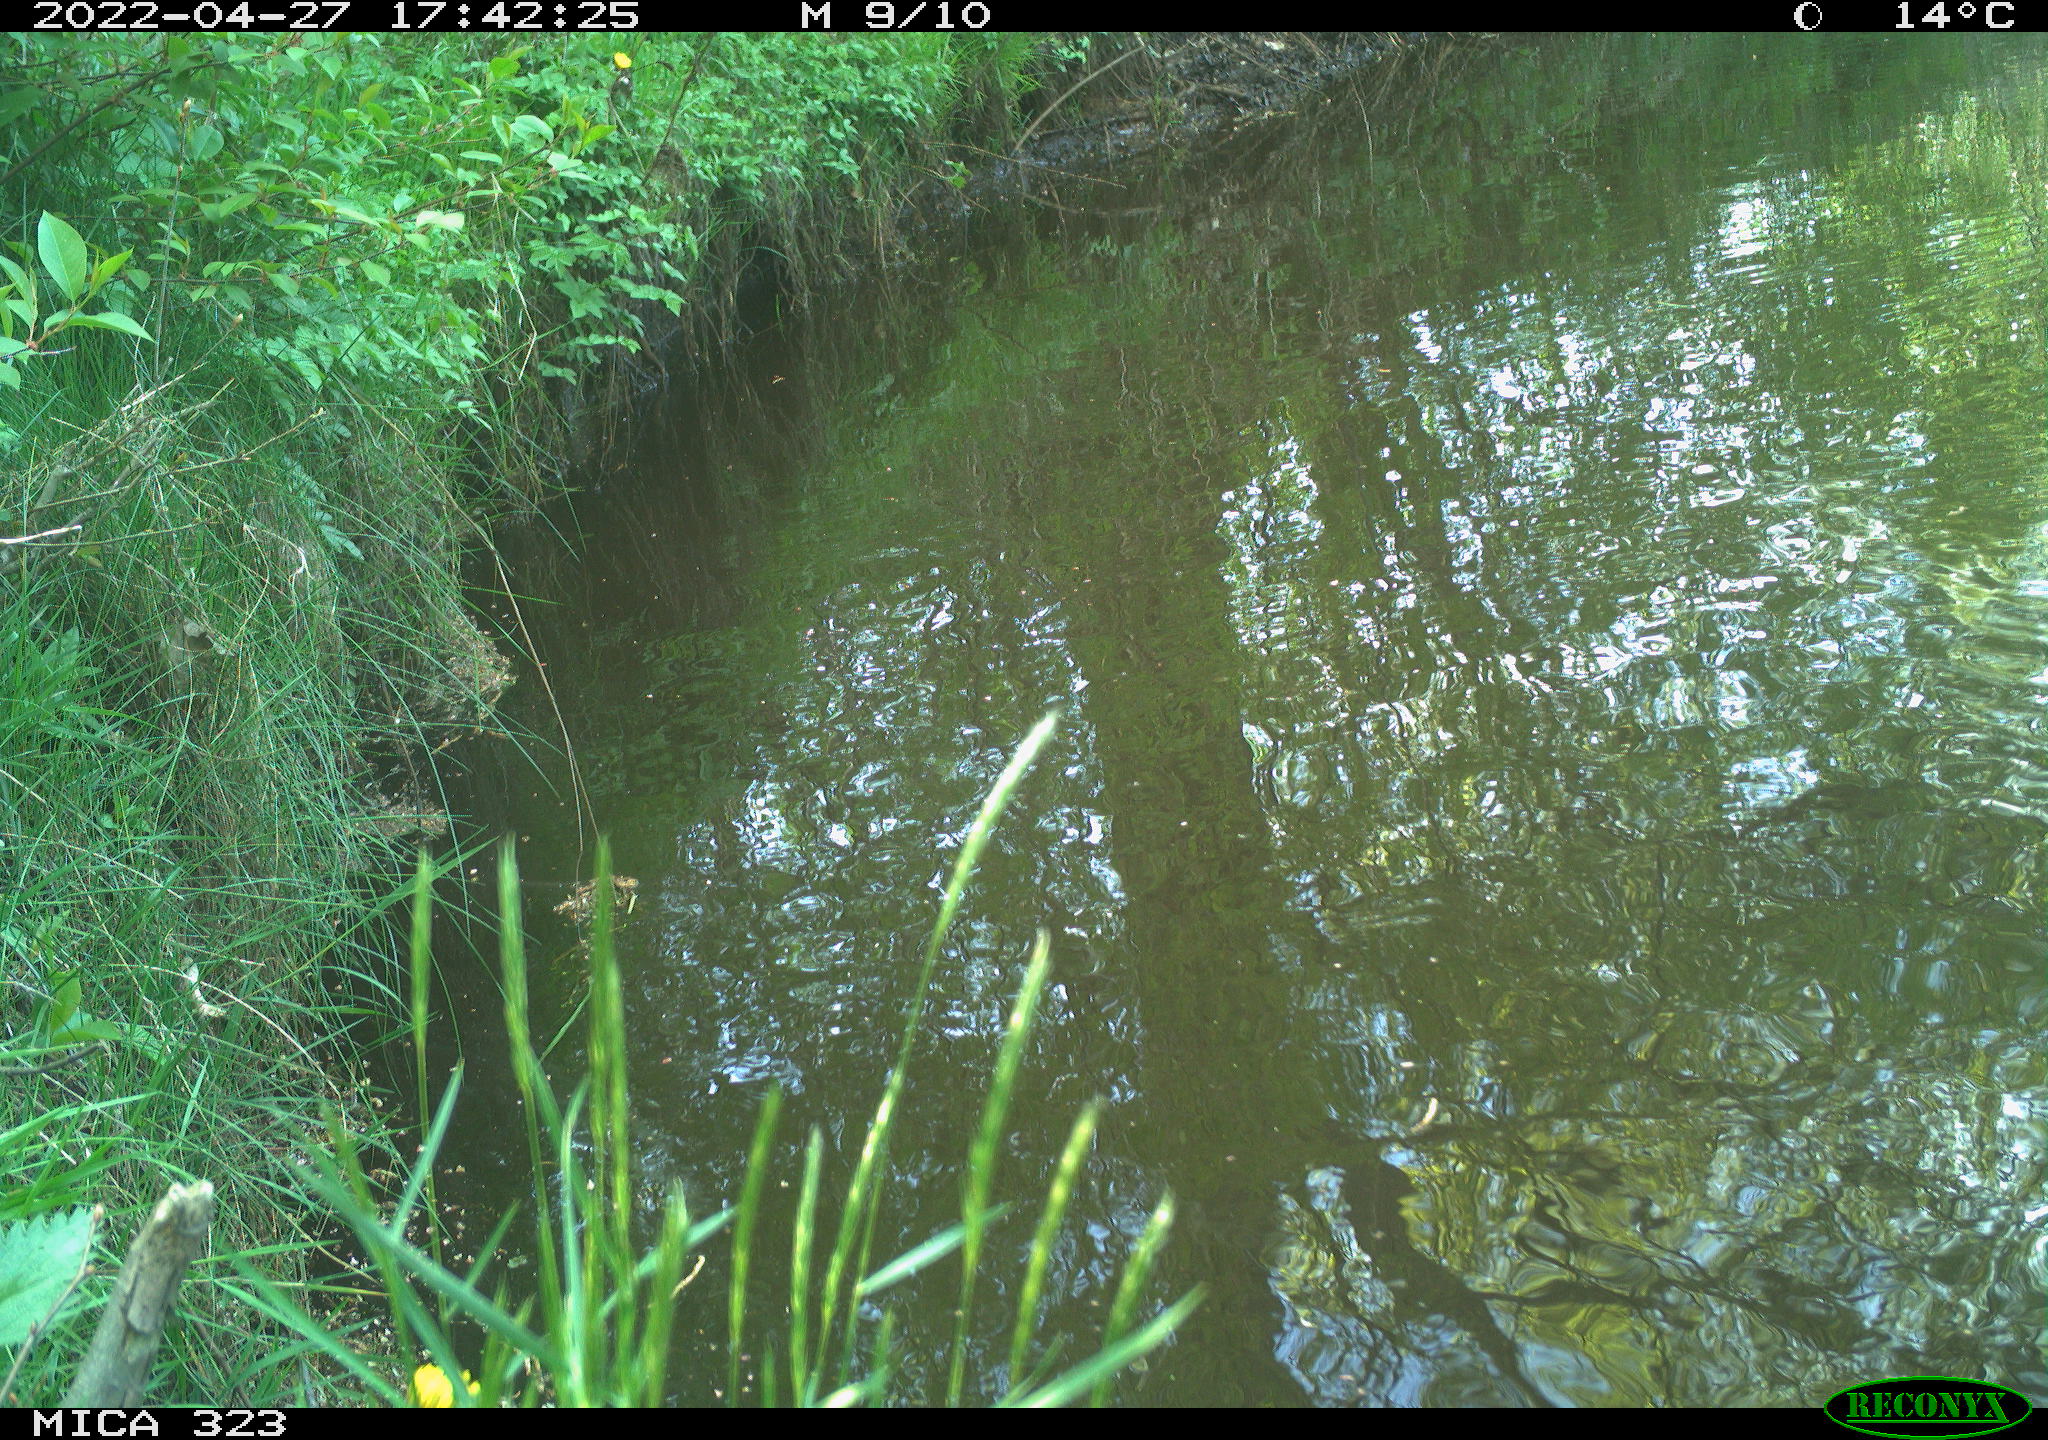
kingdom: Animalia
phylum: Chordata
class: Aves
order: Anseriformes
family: Anatidae
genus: Anas
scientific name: Anas
